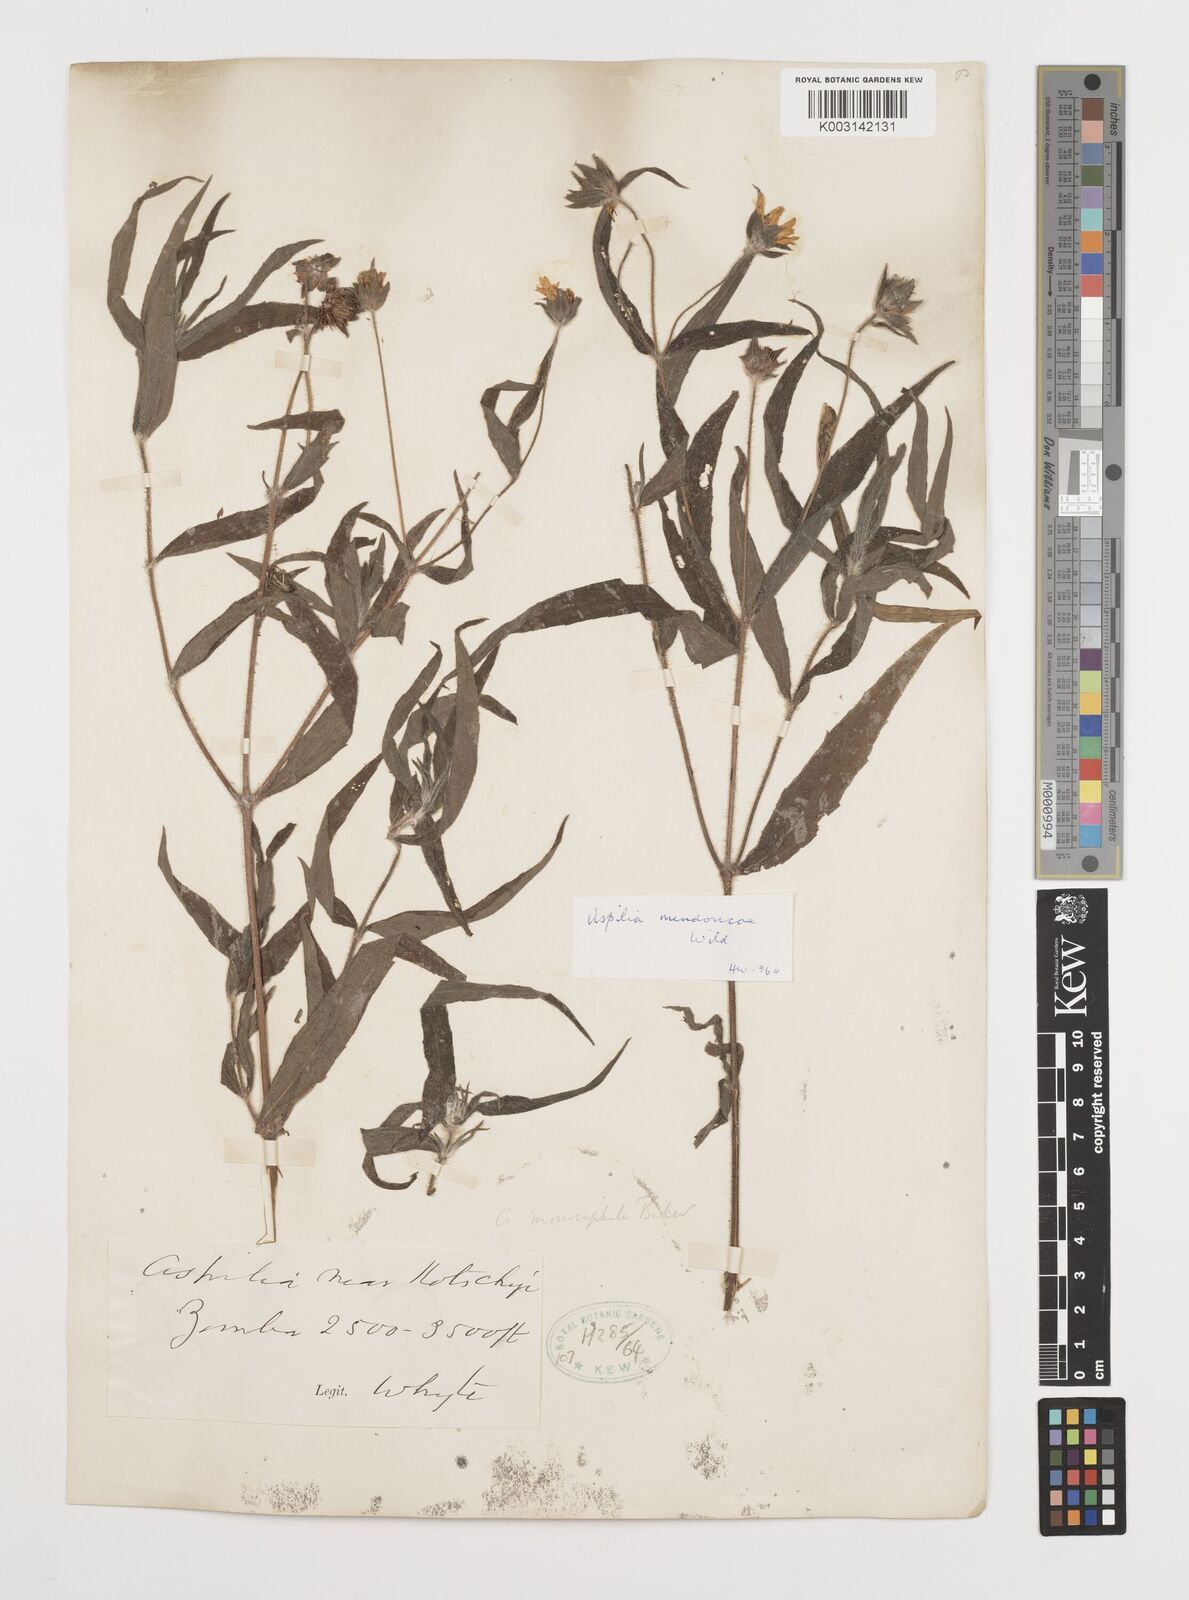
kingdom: Plantae
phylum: Tracheophyta
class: Magnoliopsida
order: Asterales
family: Asteraceae
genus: Aspilia
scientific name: Aspilia mendoncae
